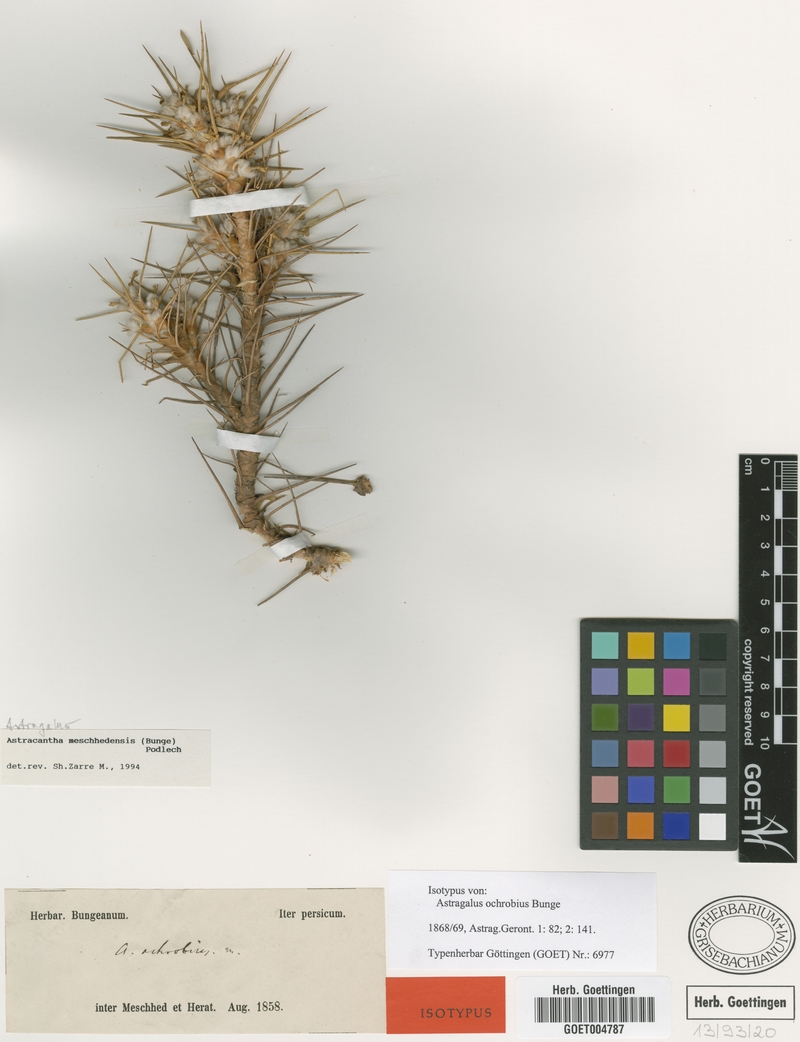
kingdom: Plantae
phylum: Tracheophyta
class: Magnoliopsida
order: Fabales
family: Fabaceae
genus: Astragalus
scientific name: Astragalus verus
